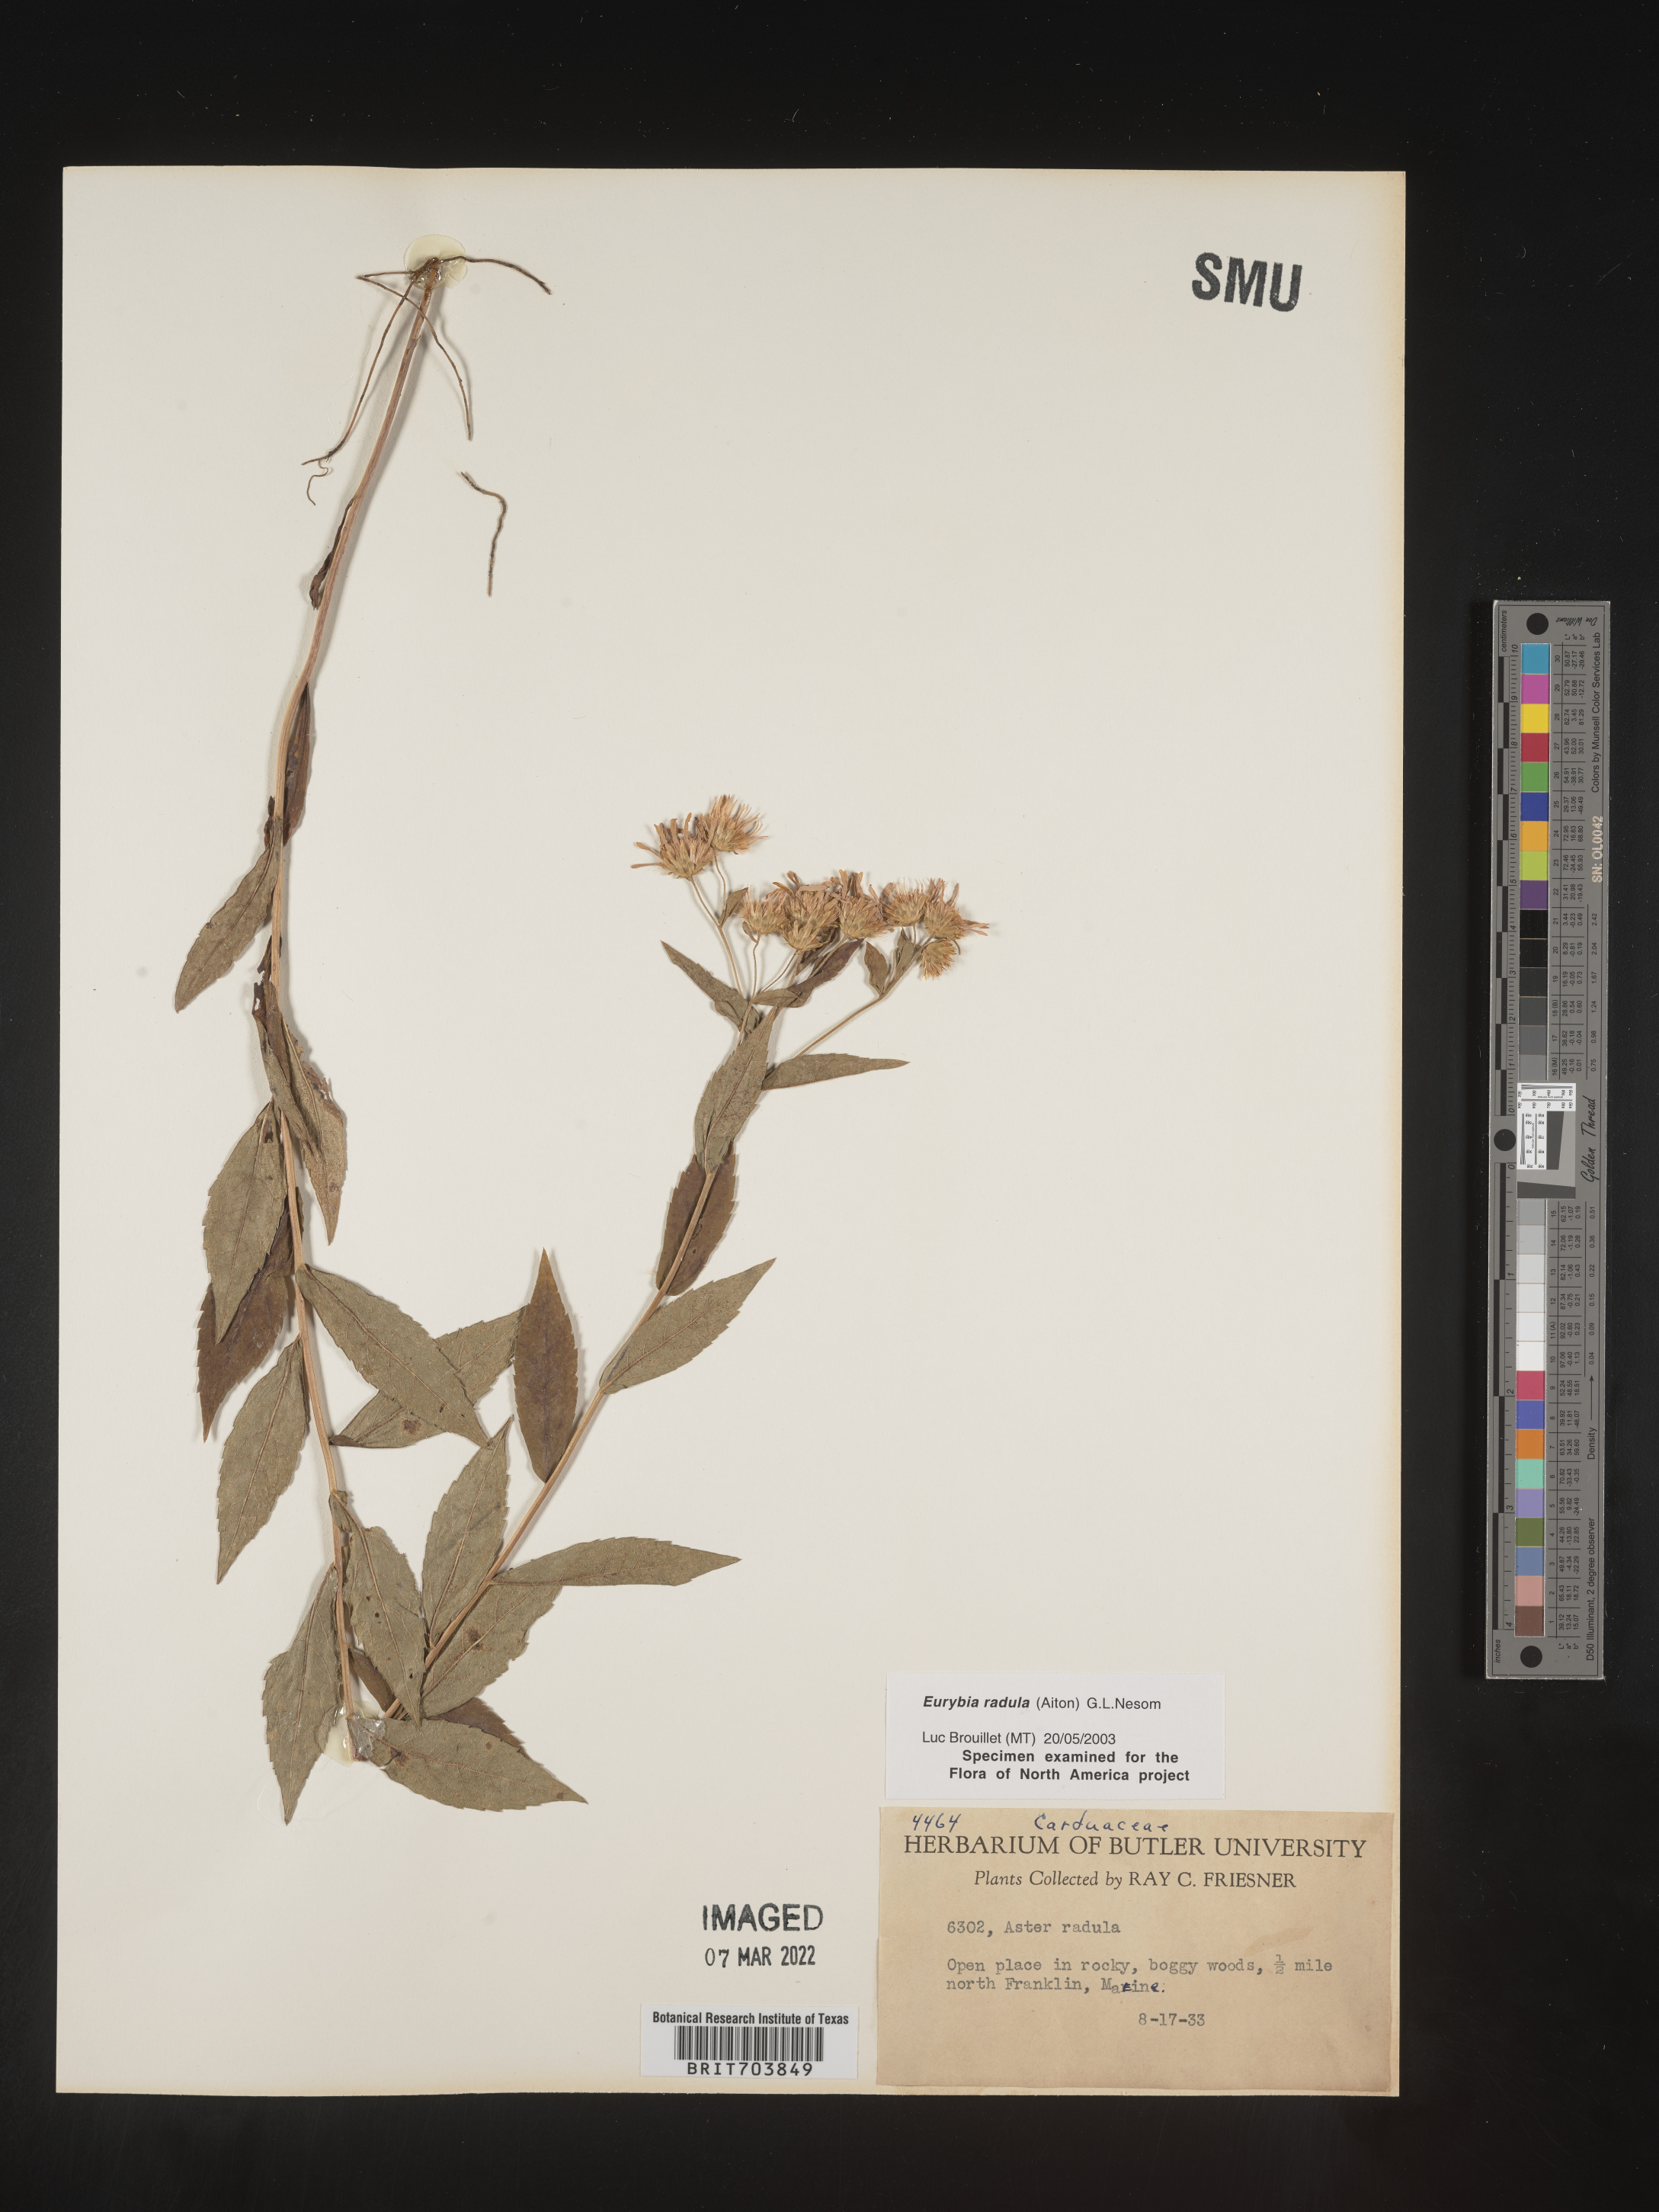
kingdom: Plantae
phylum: Tracheophyta
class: Magnoliopsida
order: Asterales
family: Asteraceae
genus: Eurybia
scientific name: Eurybia radula
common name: Low rough aster
